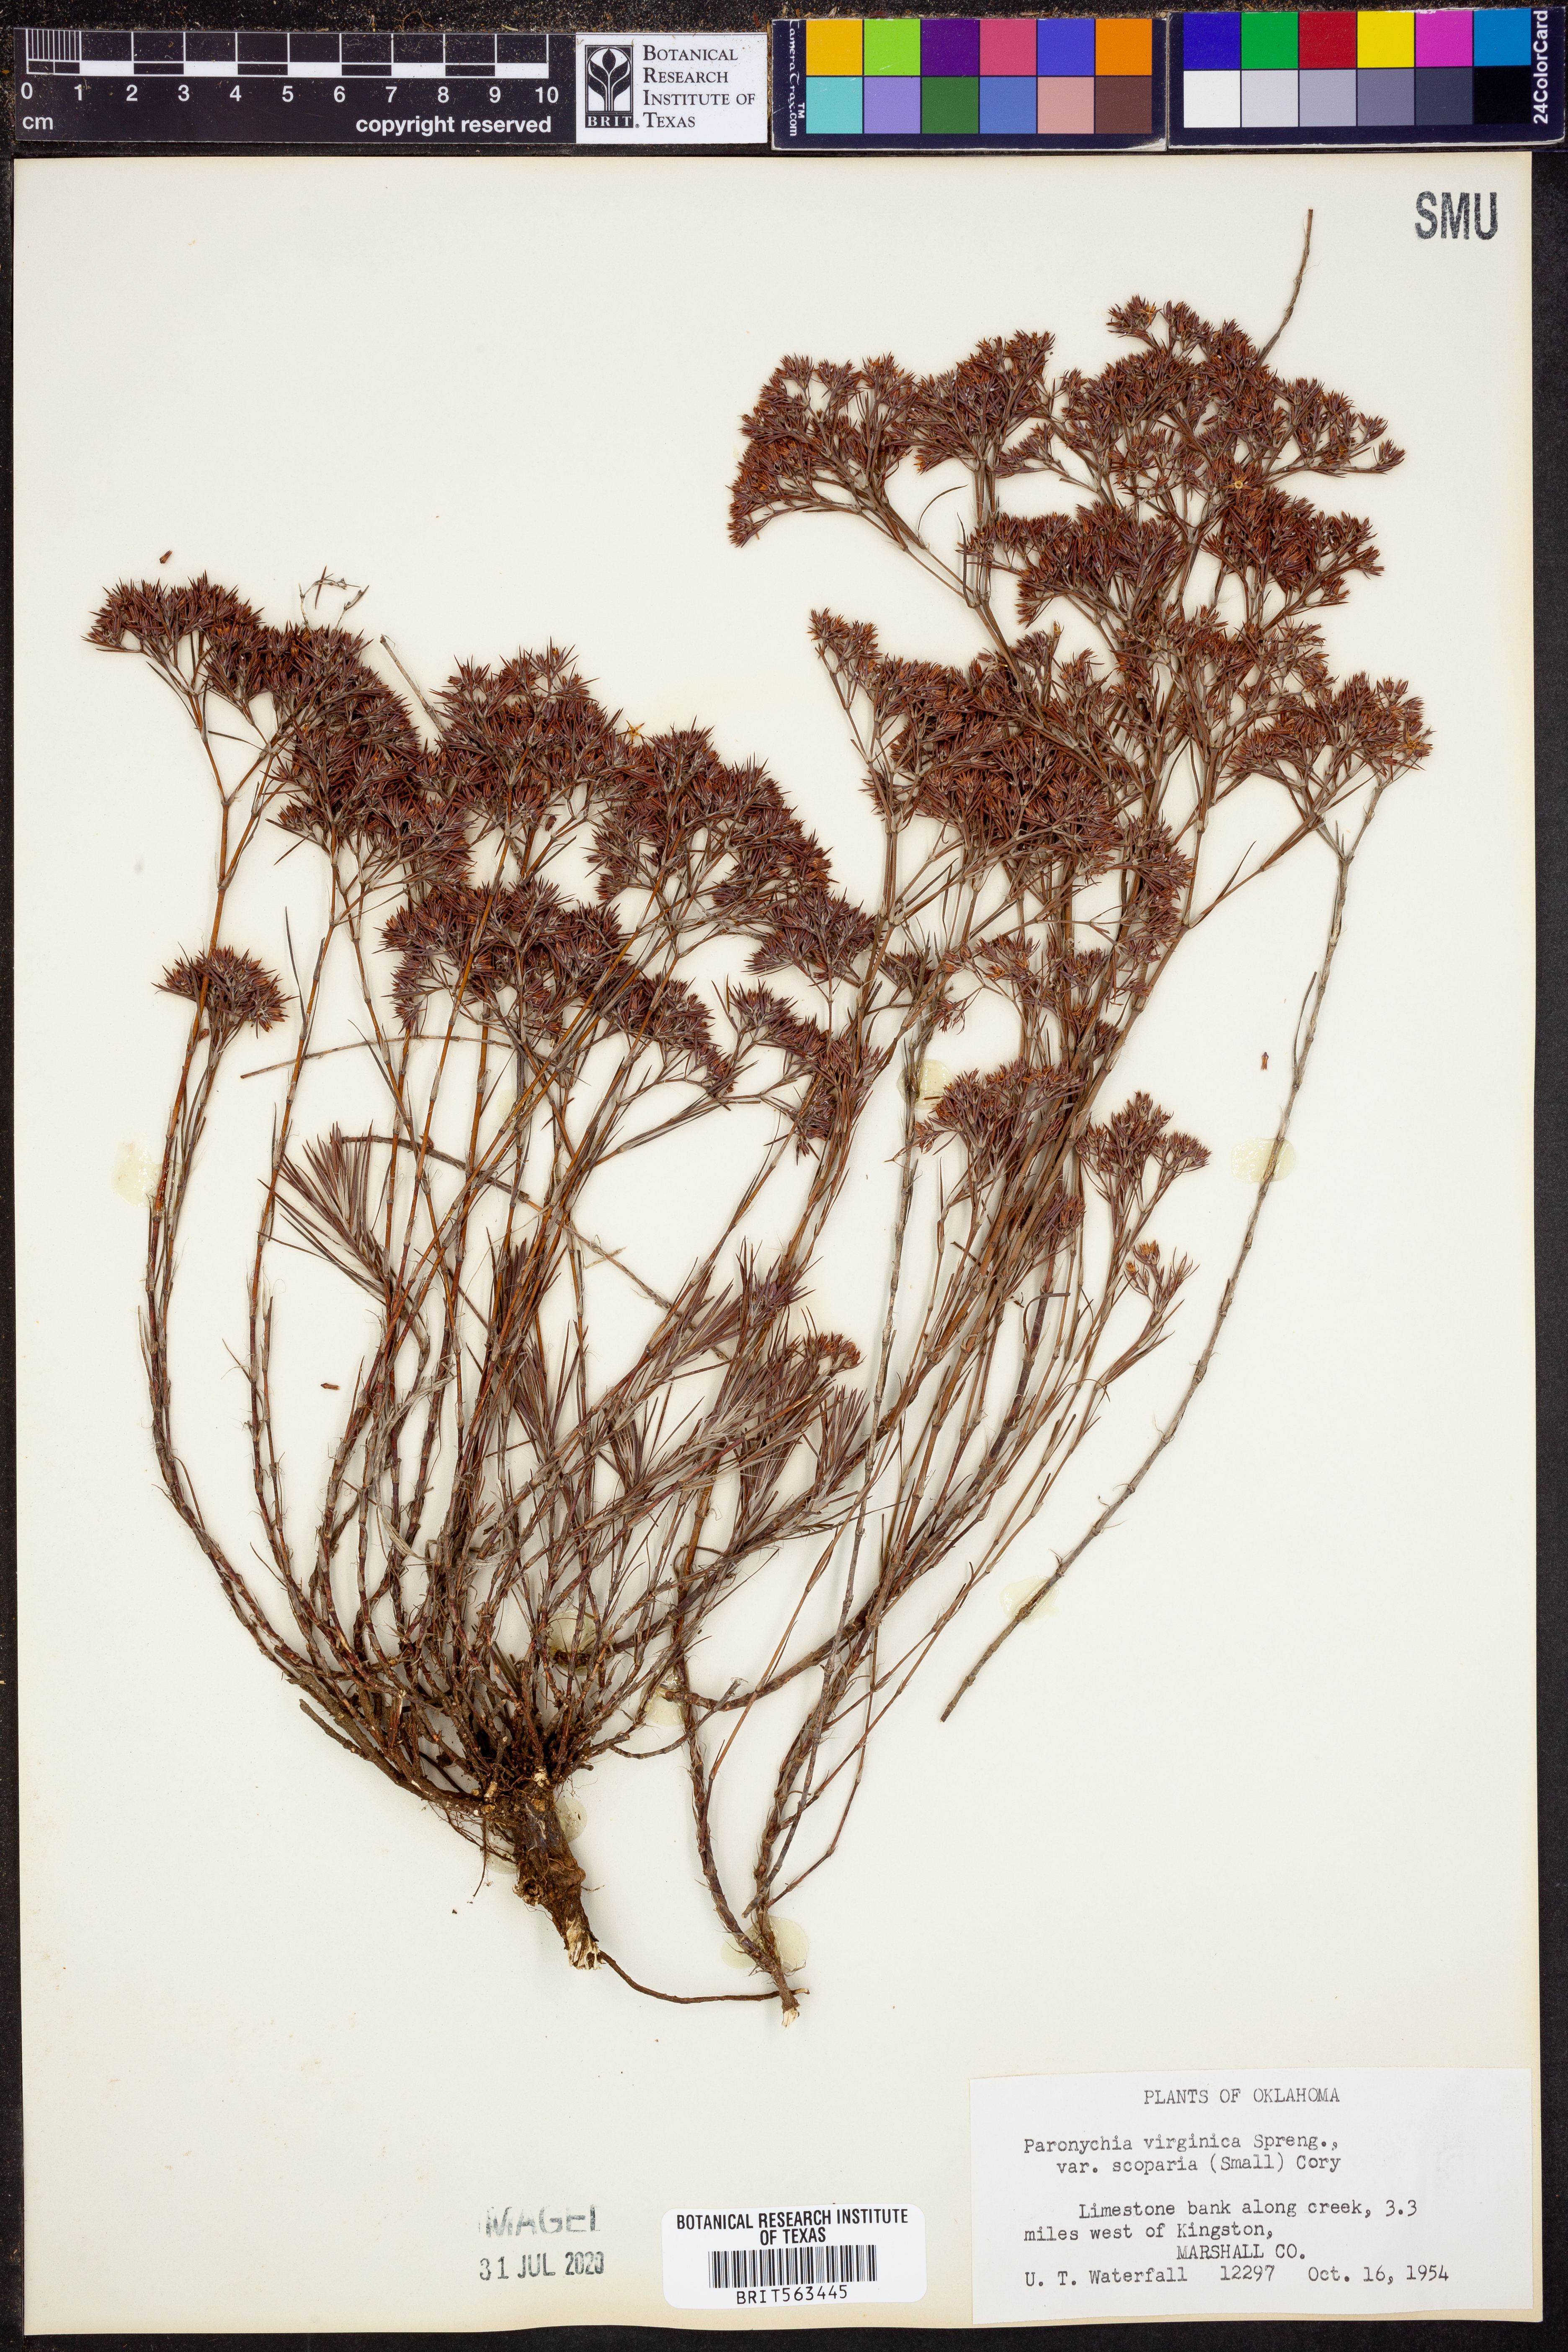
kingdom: Plantae
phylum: Tracheophyta
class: Magnoliopsida
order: Caryophyllales
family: Caryophyllaceae
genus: Paronychia
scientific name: Paronychia virginica
